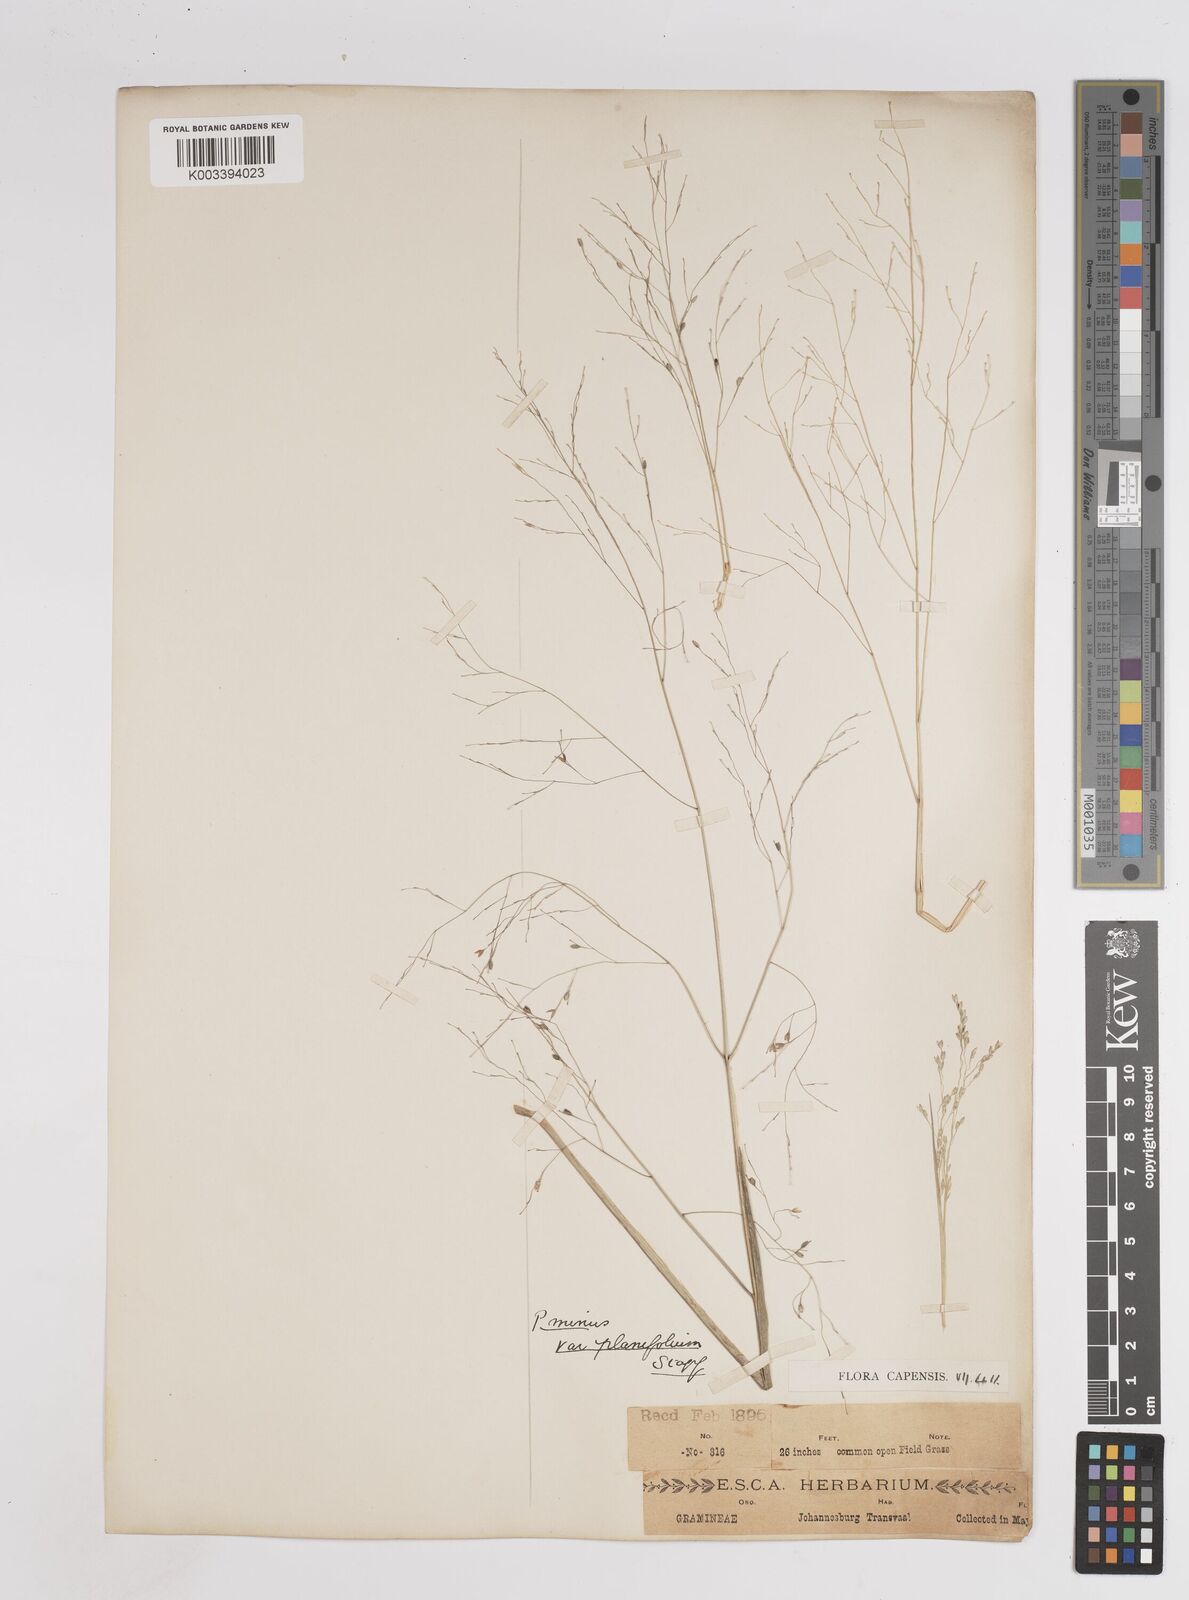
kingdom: Plantae
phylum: Tracheophyta
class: Liliopsida
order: Poales
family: Poaceae
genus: Panicum
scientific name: Panicum
